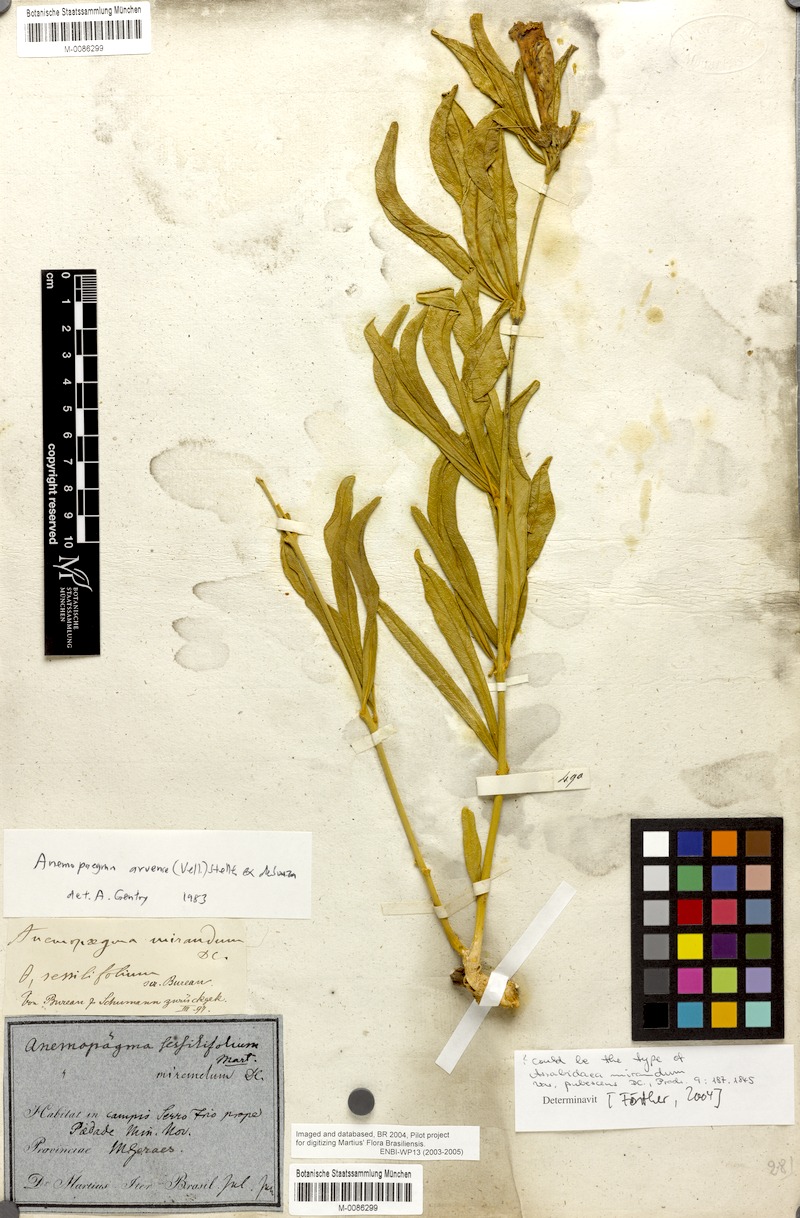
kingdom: Plantae
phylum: Tracheophyta
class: Magnoliopsida
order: Lamiales
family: Bignoniaceae
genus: Anemopaegma
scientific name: Anemopaegma arvense
